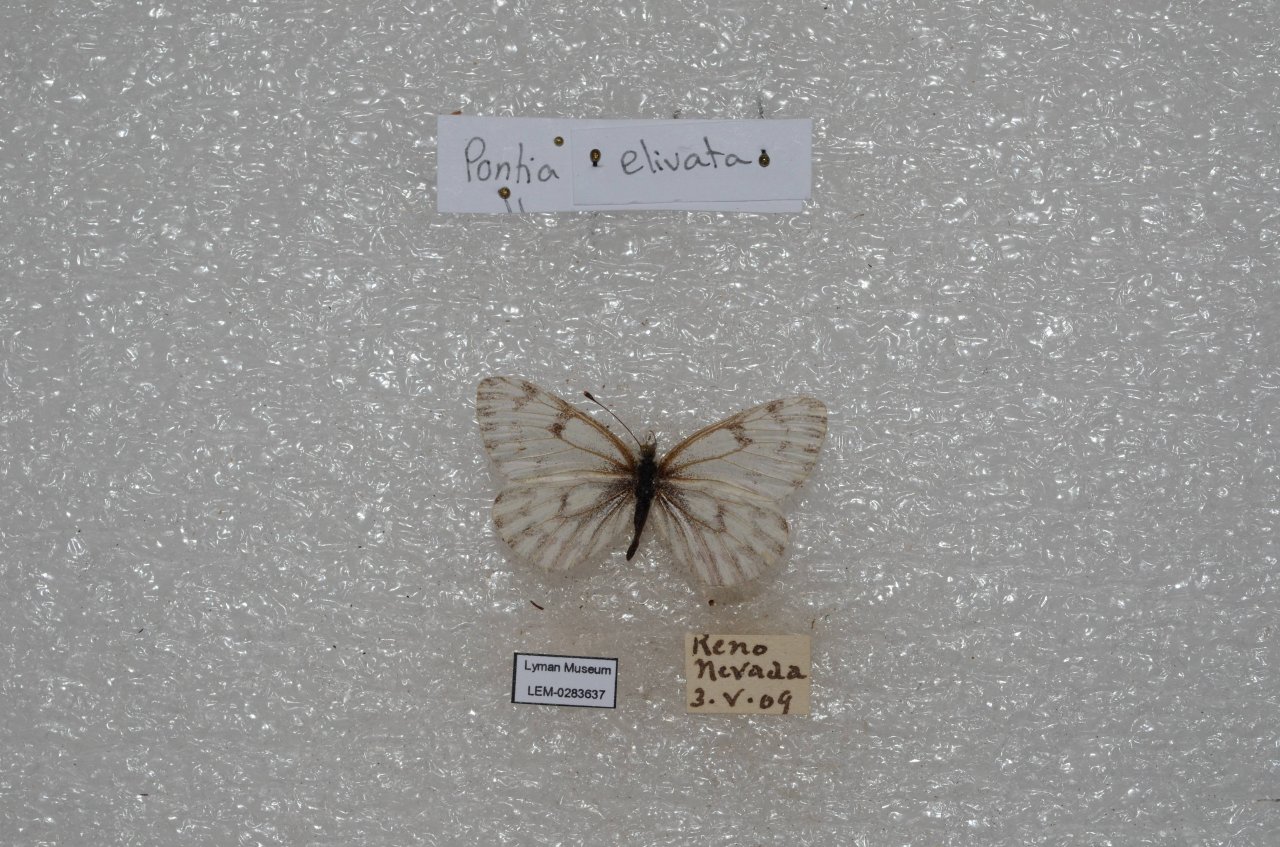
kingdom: Animalia
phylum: Arthropoda
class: Insecta
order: Lepidoptera
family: Pieridae
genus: Pontia
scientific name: Pontia sisymbrii
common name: Spring White
